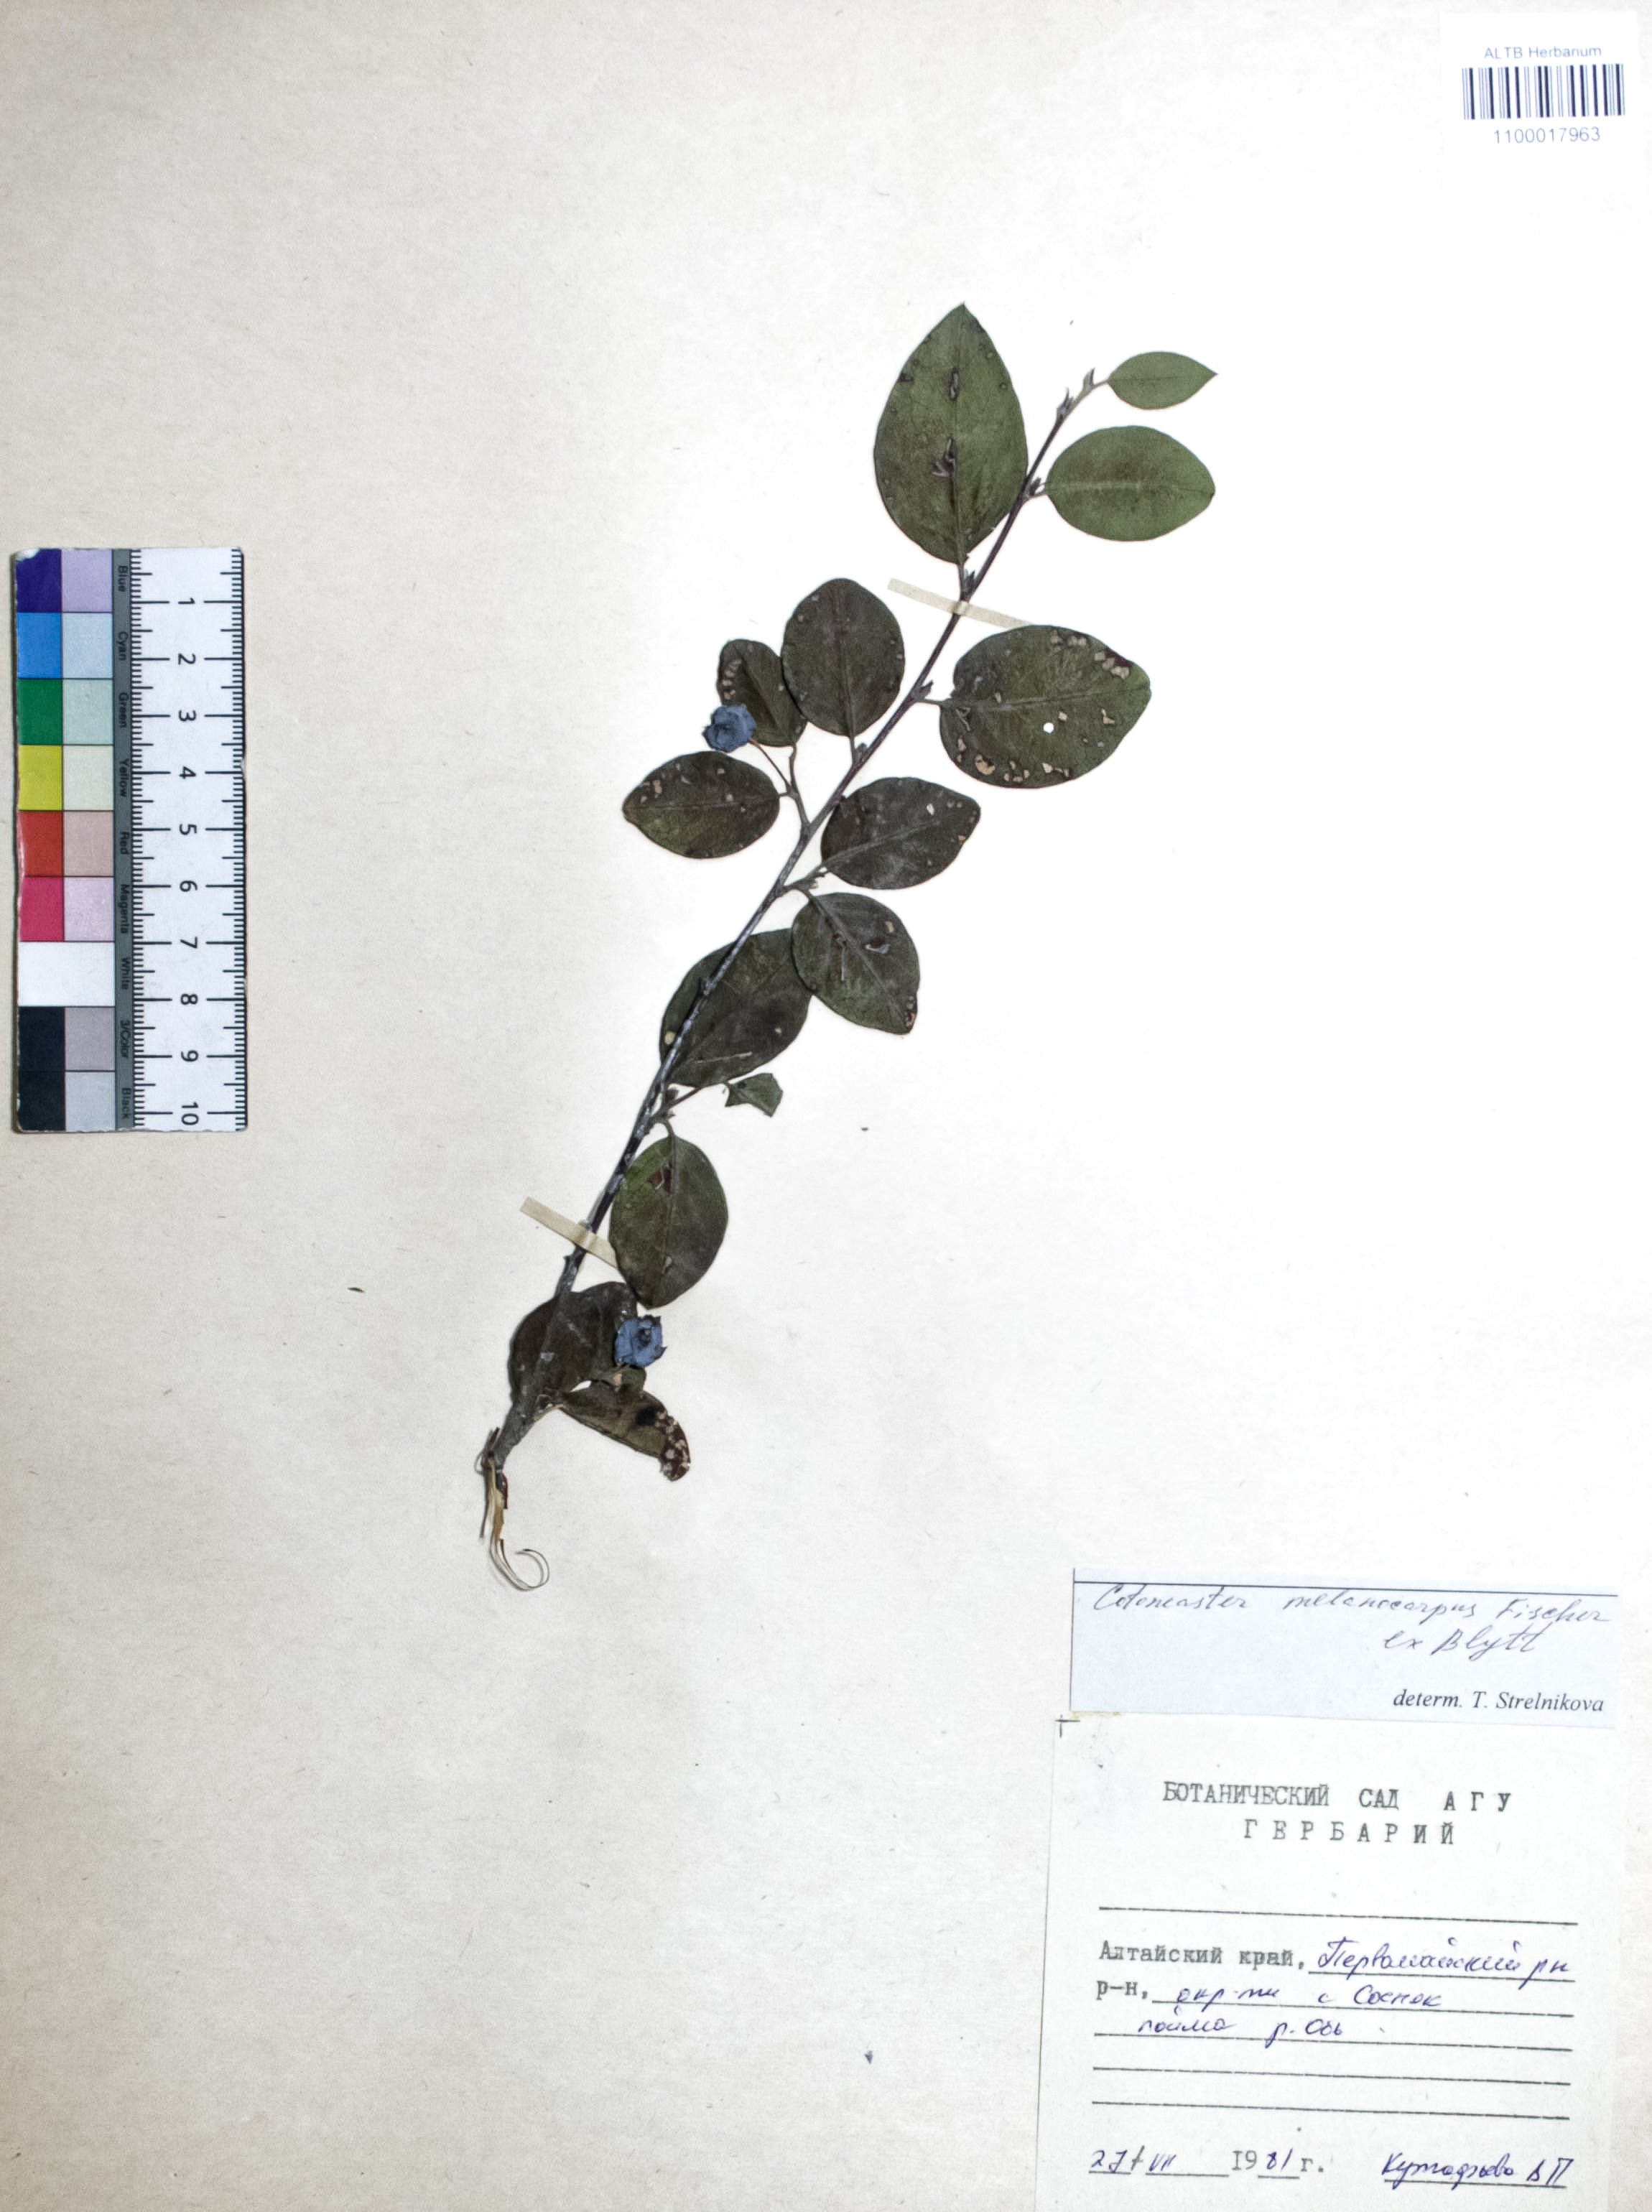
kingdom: Plantae
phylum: Tracheophyta
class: Magnoliopsida
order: Rosales
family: Rosaceae
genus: Cotoneaster
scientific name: Cotoneaster niger
